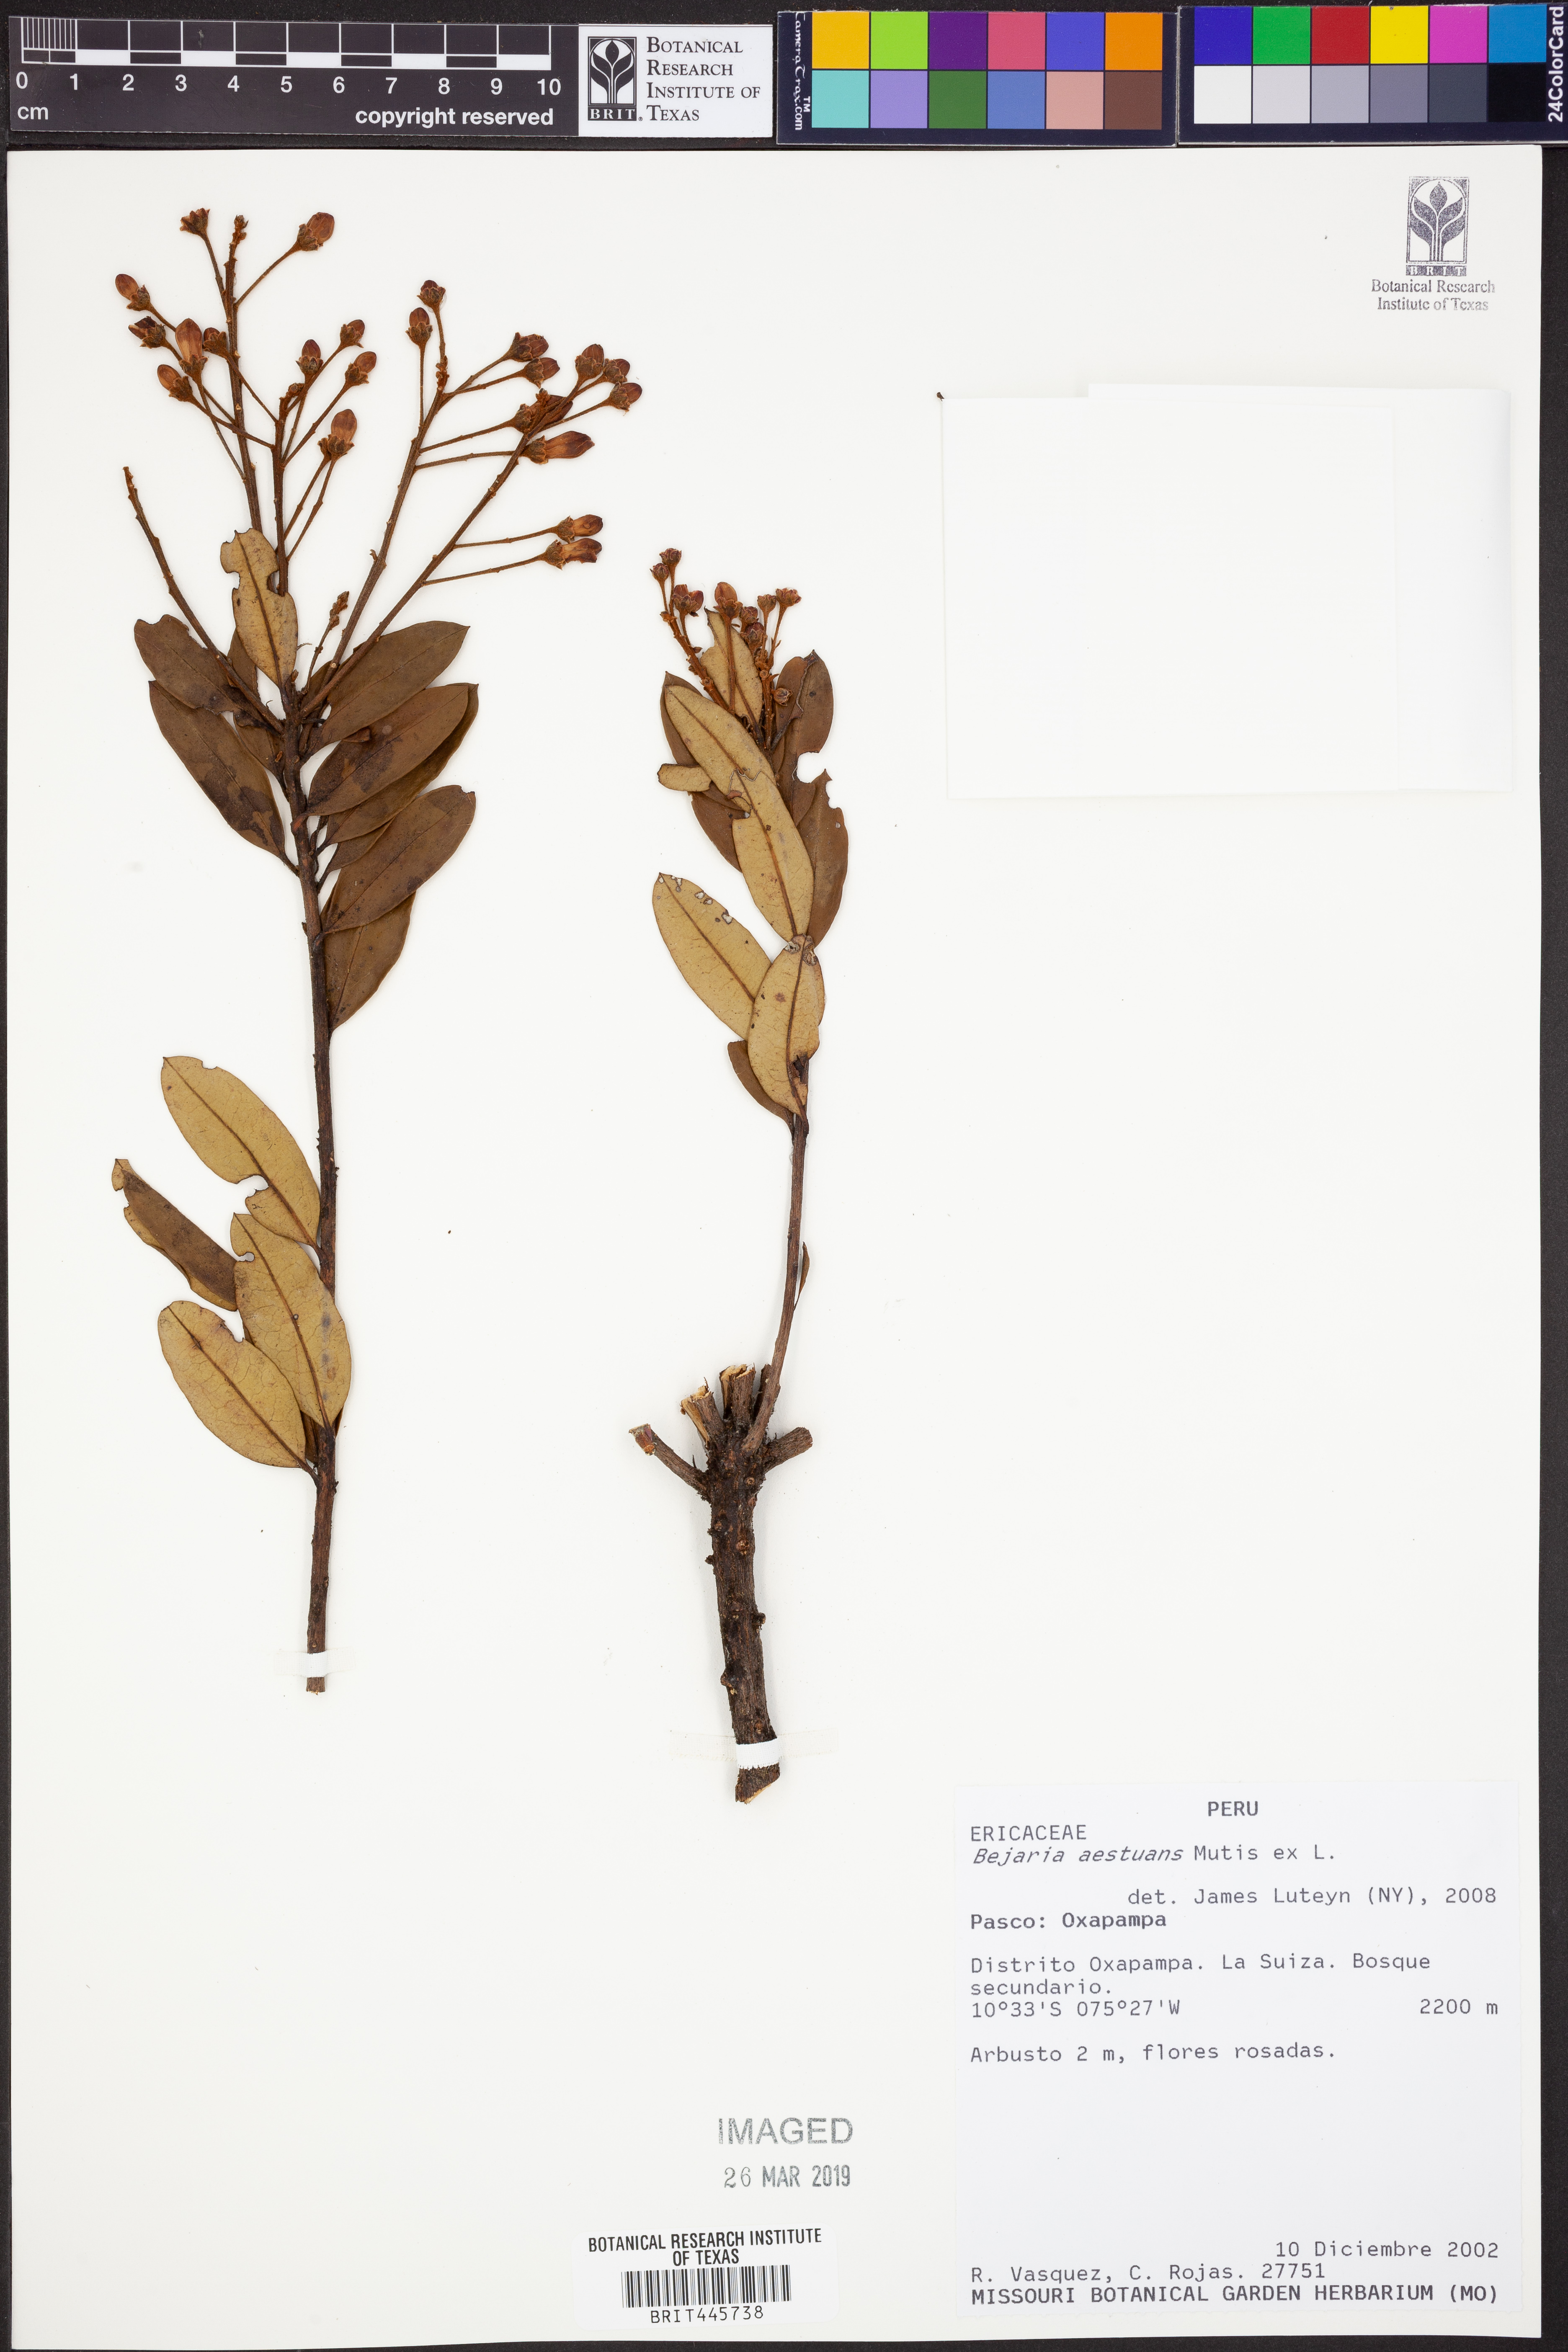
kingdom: Plantae
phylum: Tracheophyta
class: Magnoliopsida
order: Ericales
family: Ericaceae
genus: Bejaria
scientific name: Bejaria aestuans
